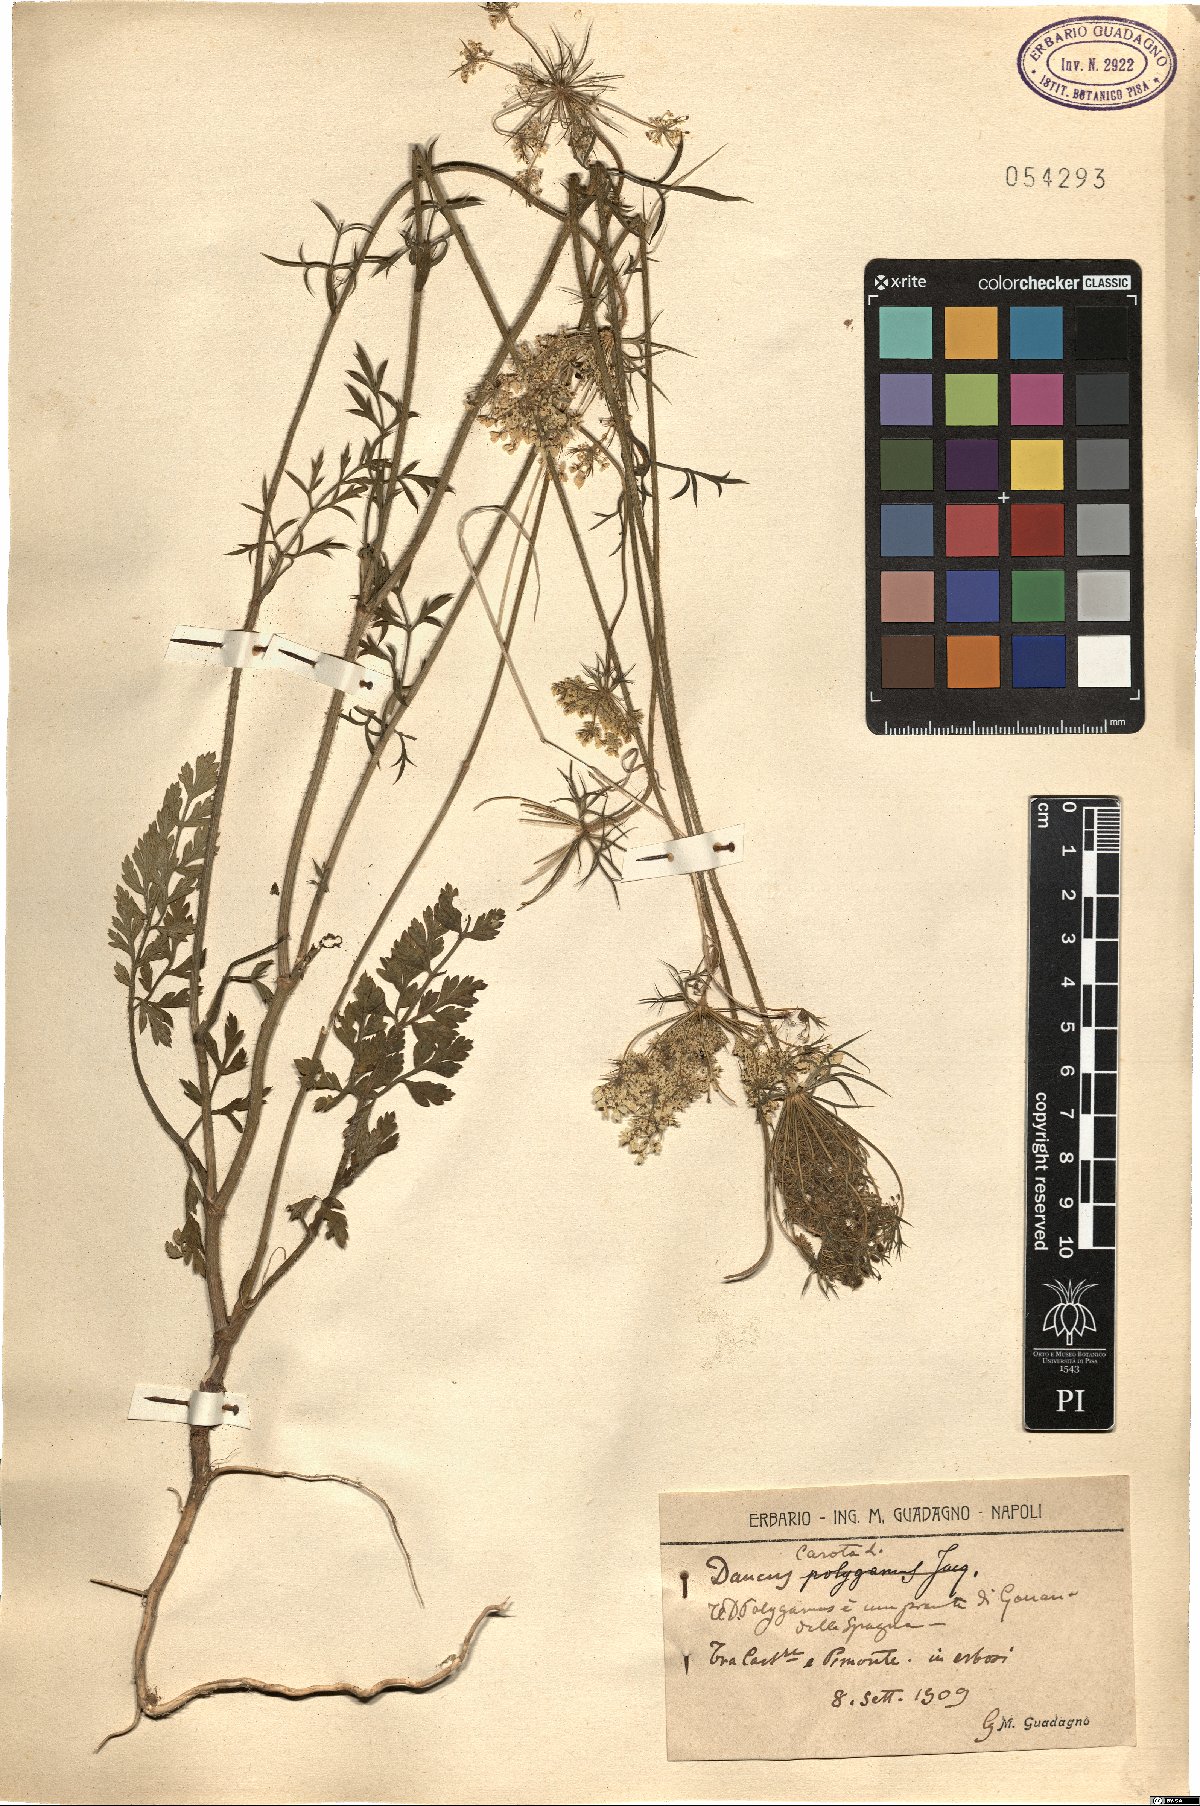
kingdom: Plantae
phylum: Tracheophyta
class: Magnoliopsida
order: Apiales
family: Apiaceae
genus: Daucus
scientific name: Daucus carota
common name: Wild carrot
